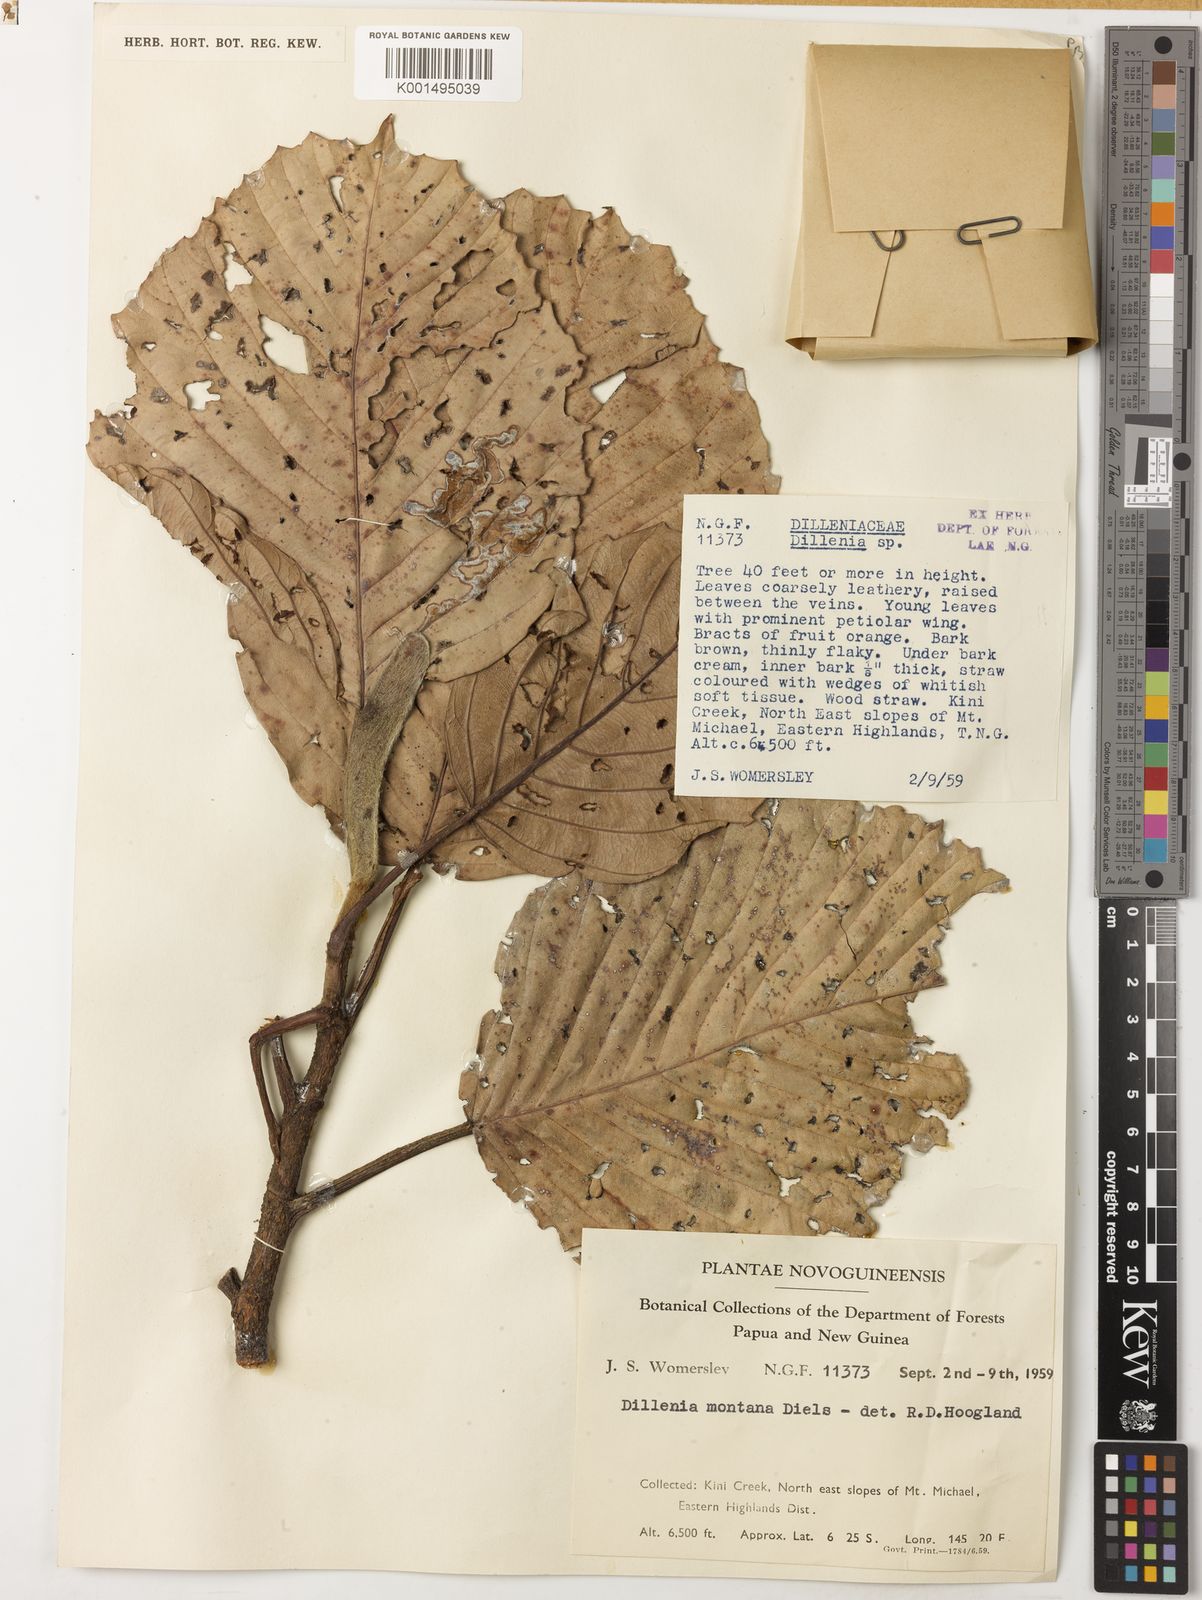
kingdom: Plantae
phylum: Tracheophyta
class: Magnoliopsida
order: Dilleniales
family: Dilleniaceae
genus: Dillenia
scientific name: Dillenia montana
